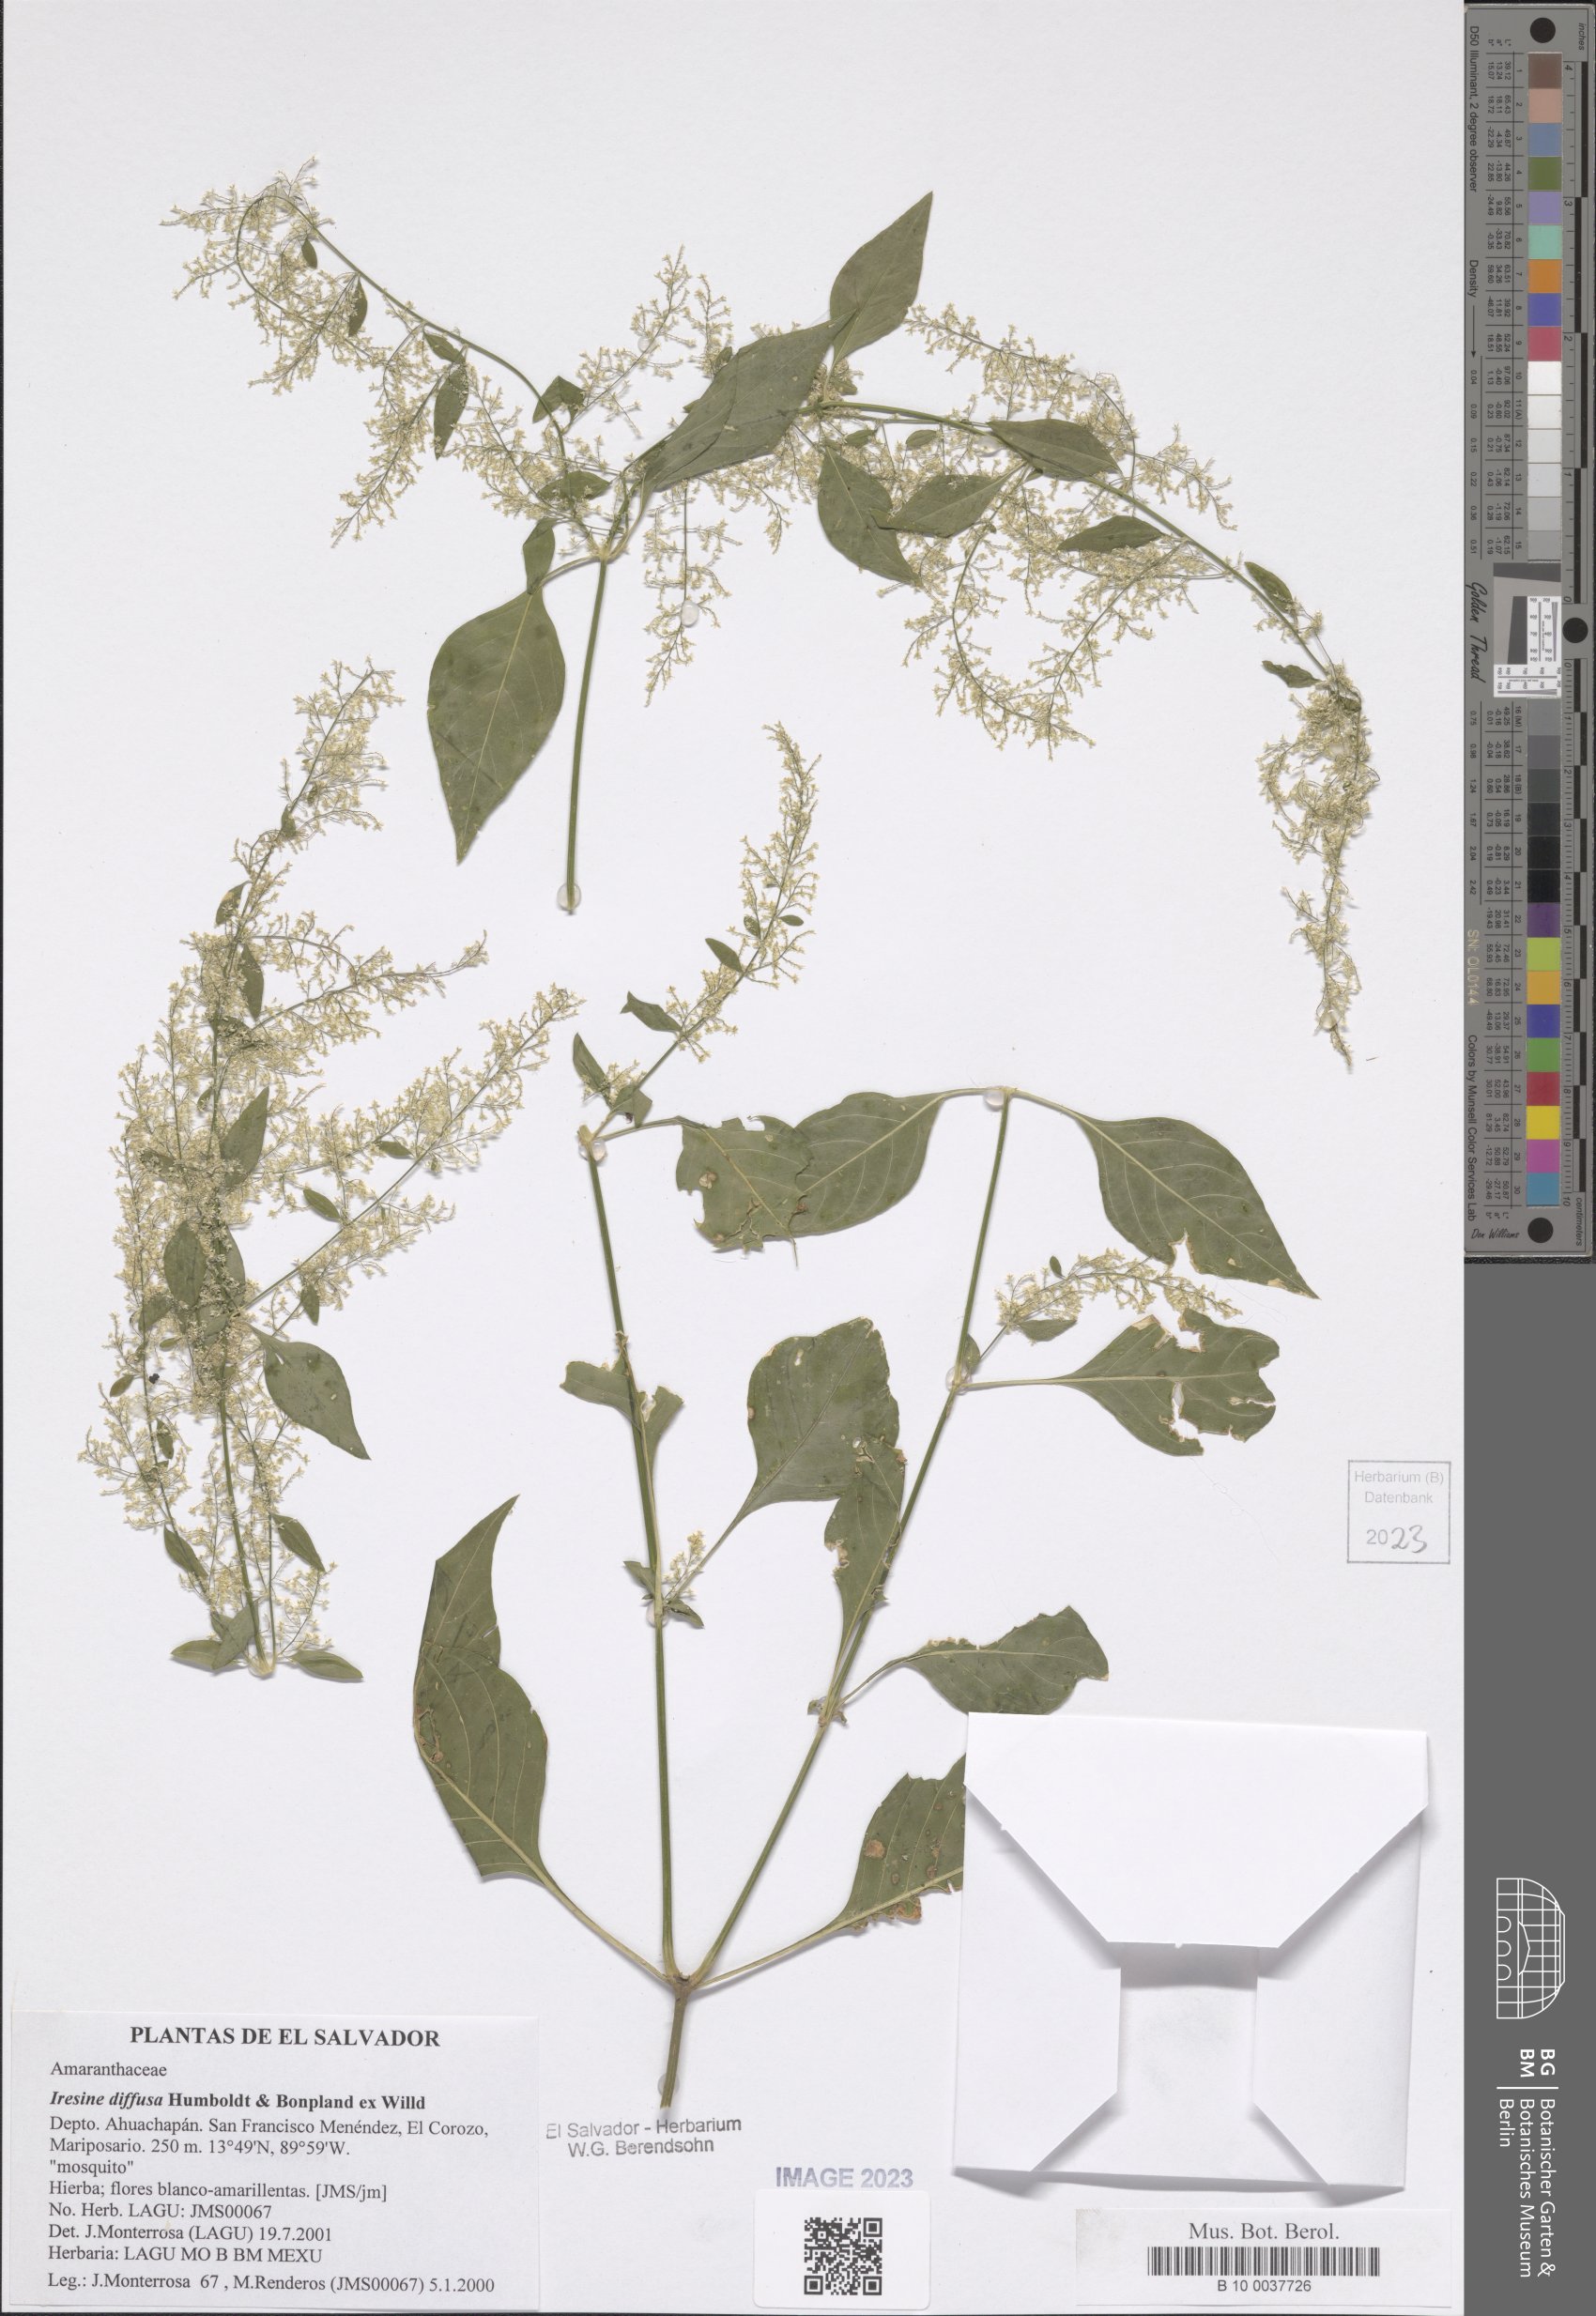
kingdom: Plantae
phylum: Tracheophyta
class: Magnoliopsida
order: Caryophyllales
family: Amaranthaceae
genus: Iresine
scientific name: Iresine diffusa
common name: Juba's-bush
